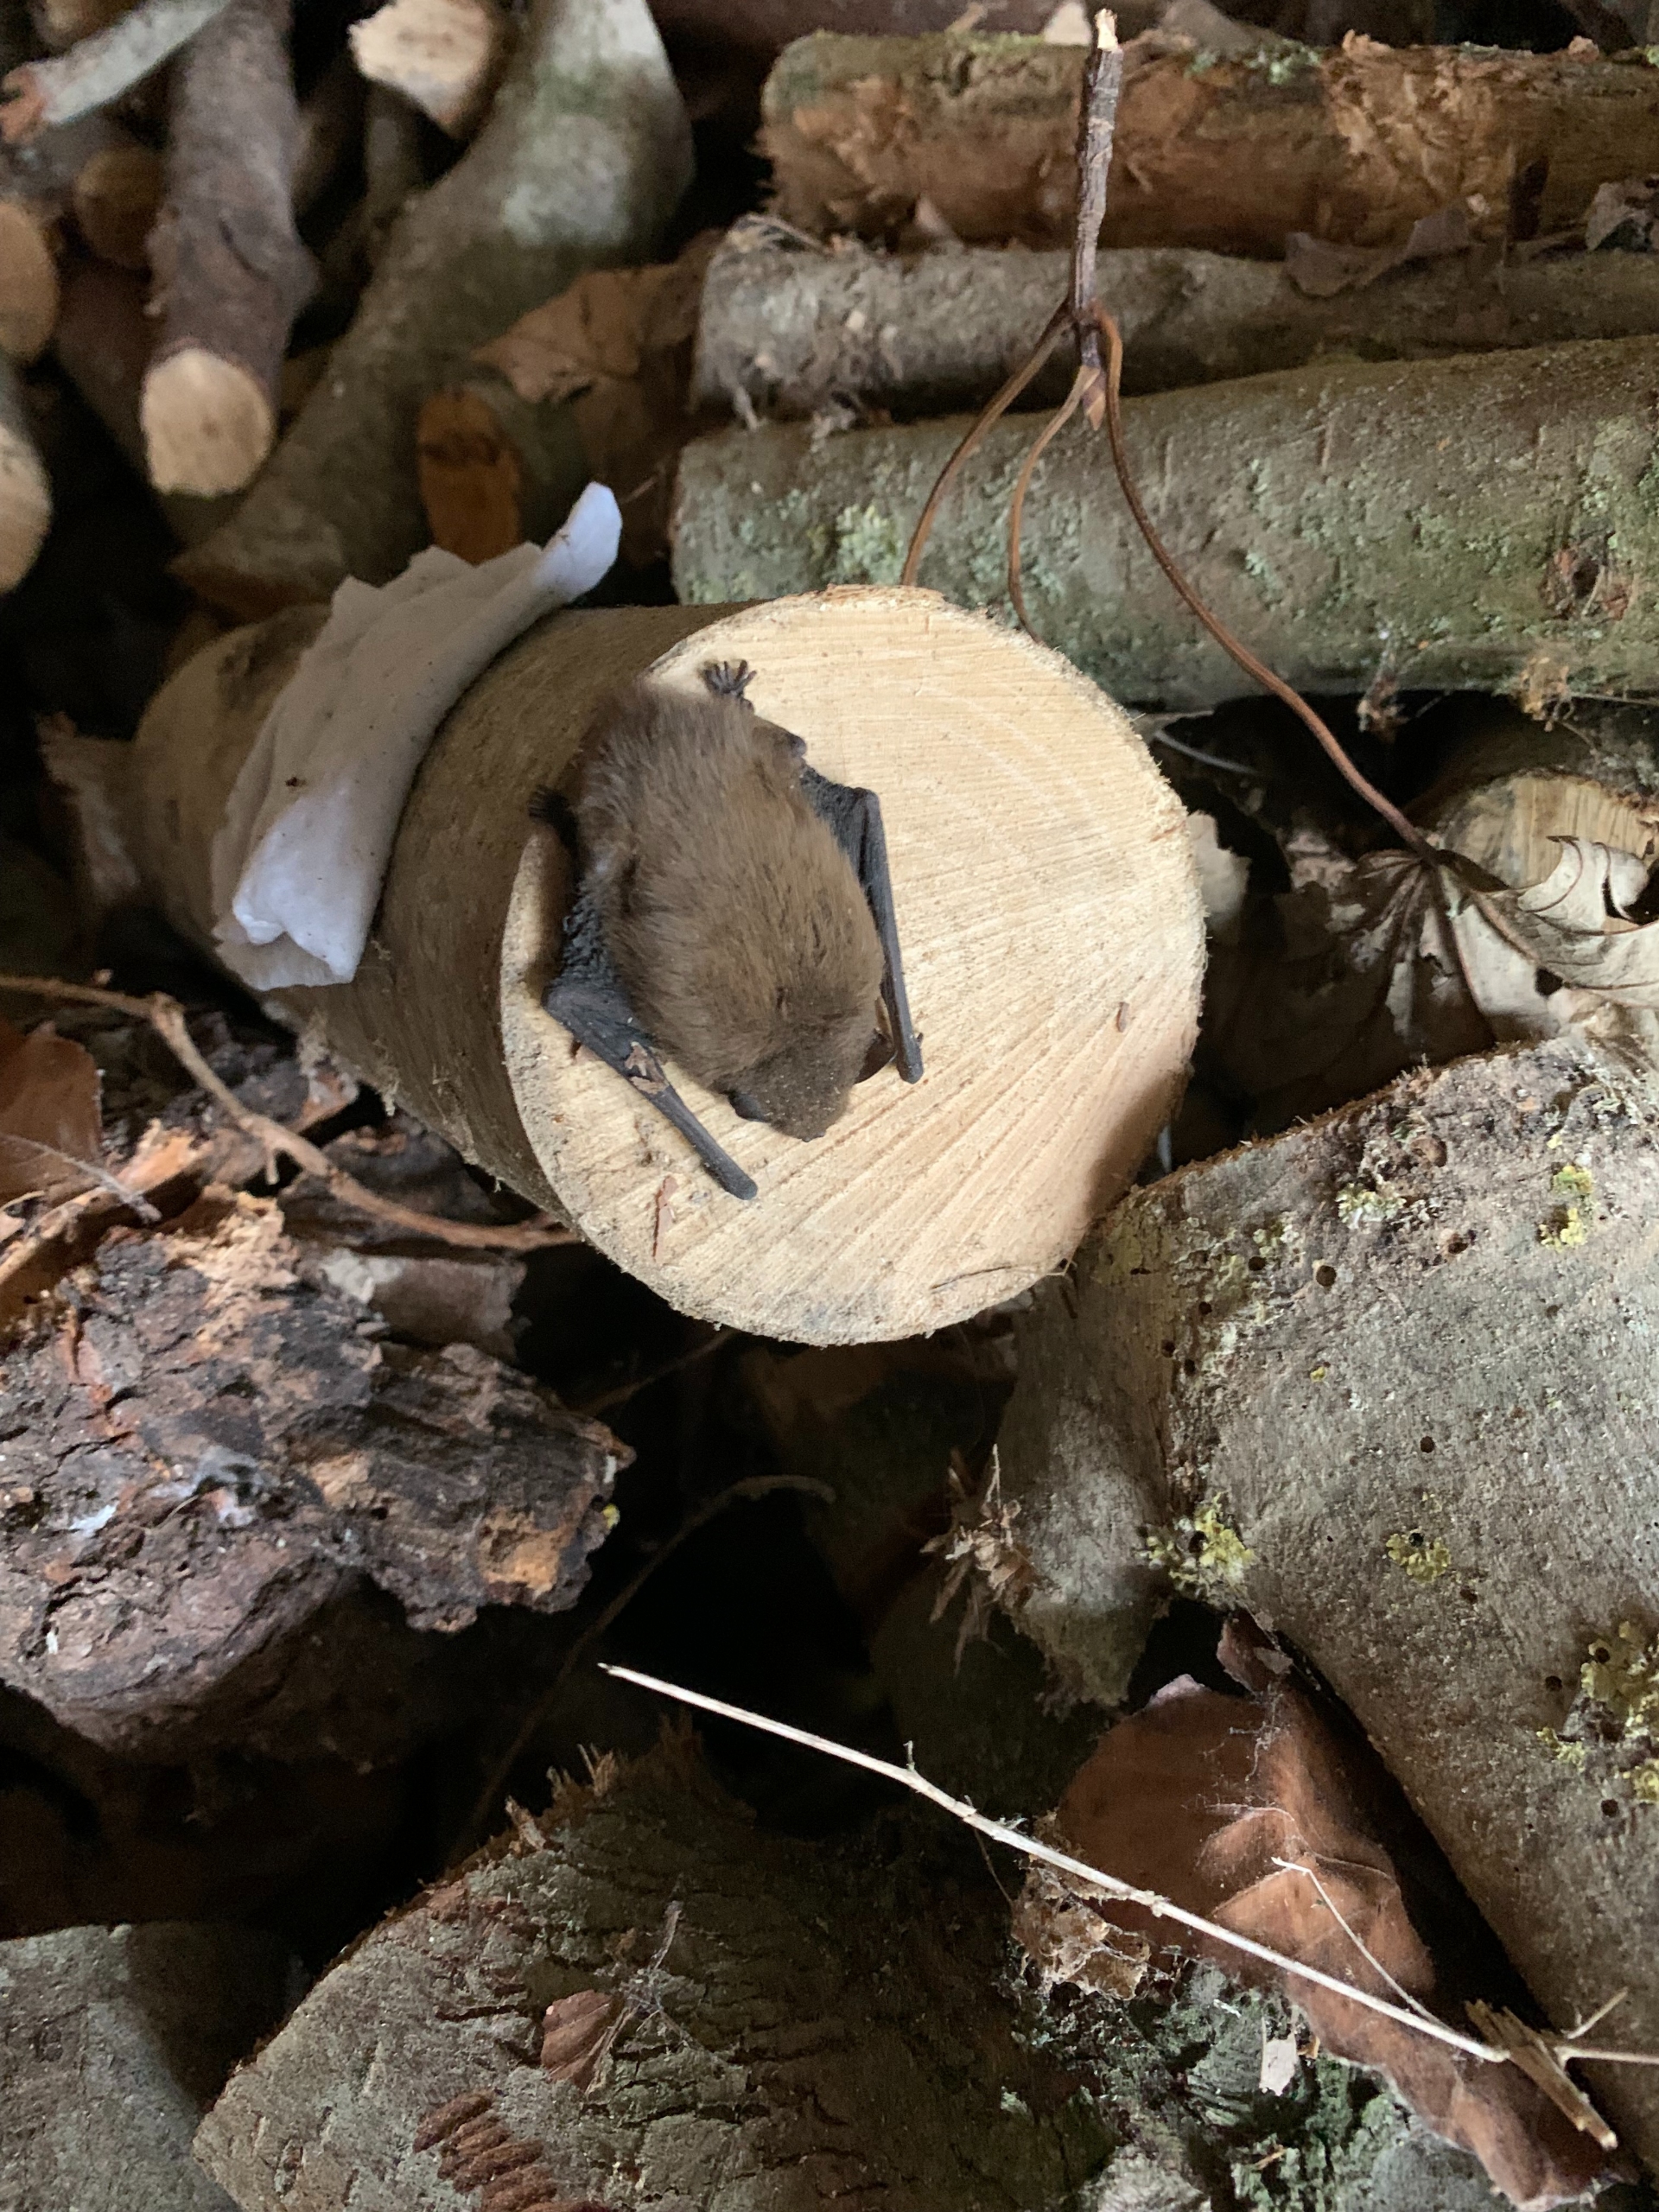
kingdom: Animalia
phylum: Chordata
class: Mammalia
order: Chiroptera
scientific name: Chiroptera
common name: Flagermus
